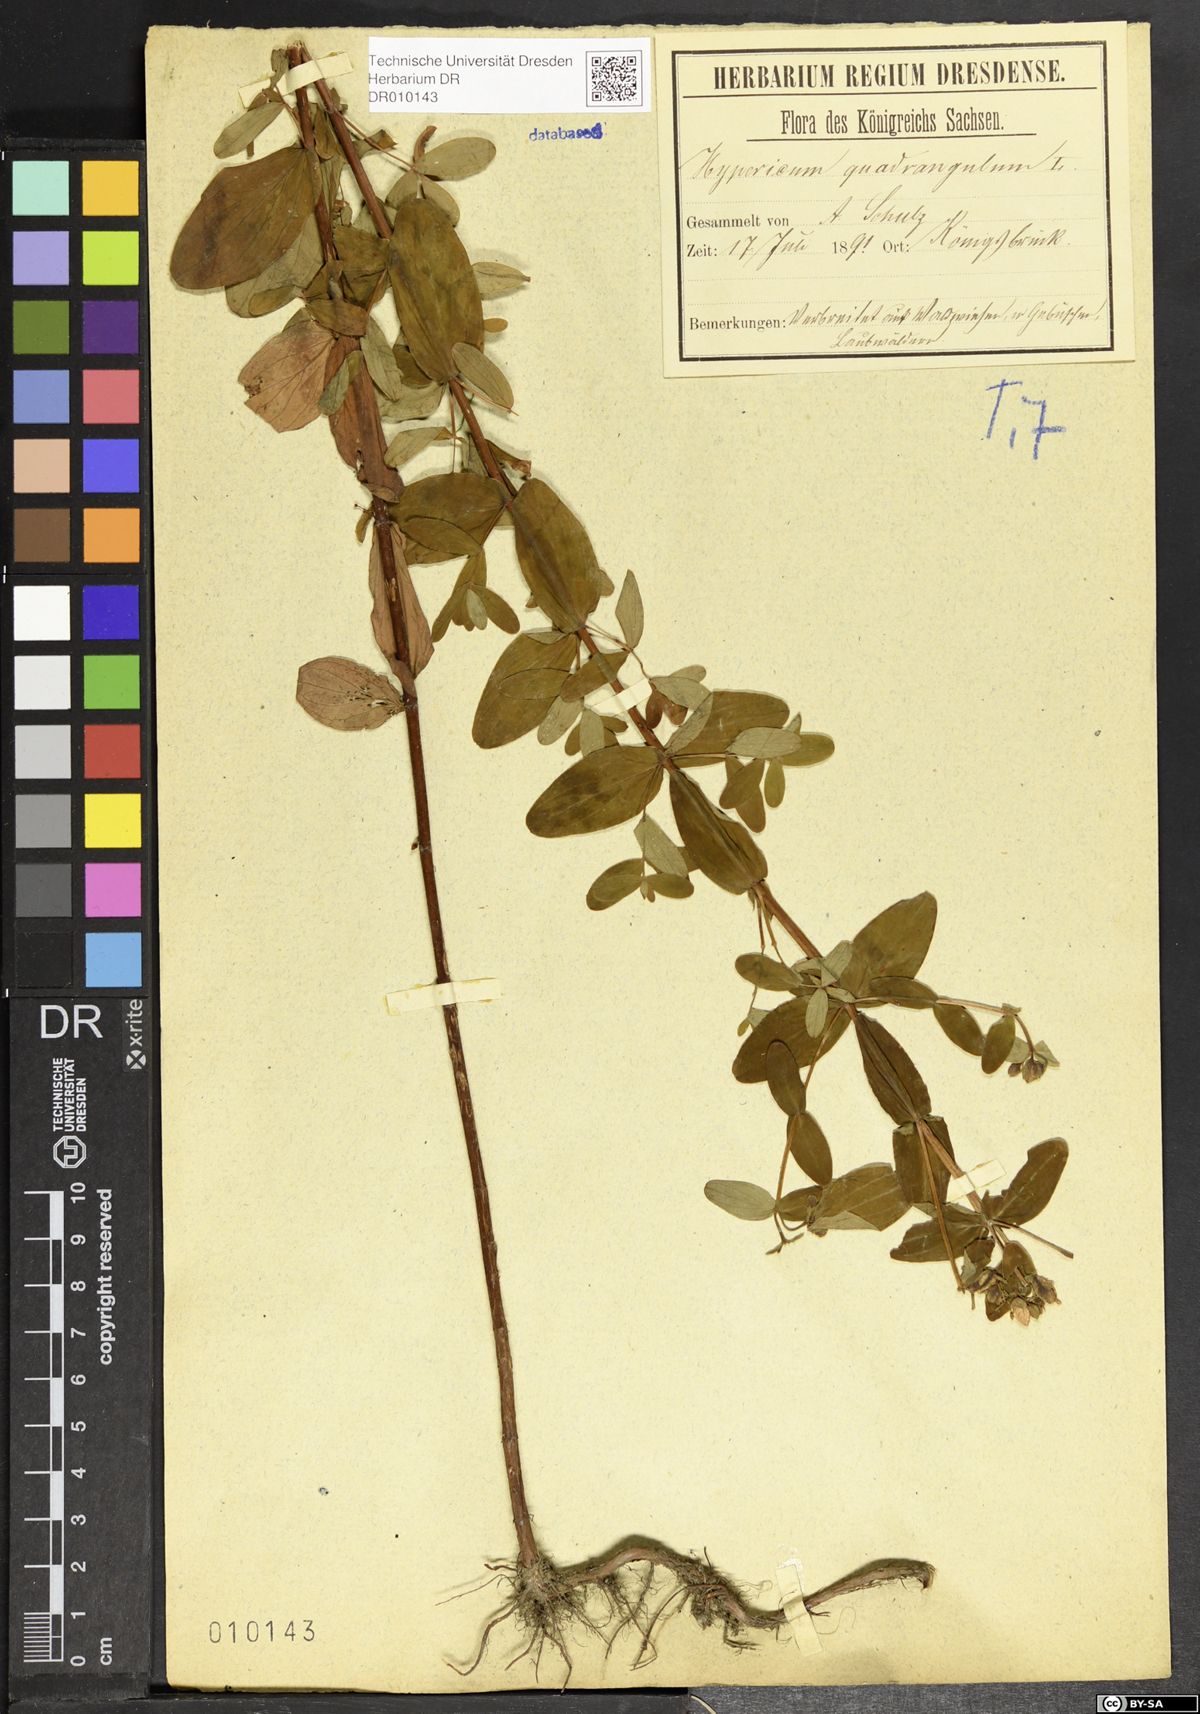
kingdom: Plantae
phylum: Tracheophyta
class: Magnoliopsida
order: Malpighiales
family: Hypericaceae
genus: Hypericum
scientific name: Hypericum maculatum
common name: Imperforate st. john's-wort
